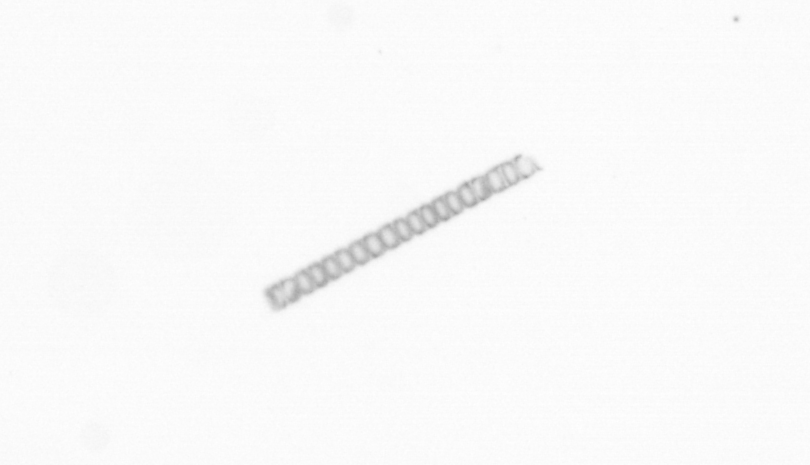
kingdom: Chromista
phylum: Ochrophyta
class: Bacillariophyceae
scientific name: Bacillariophyceae
